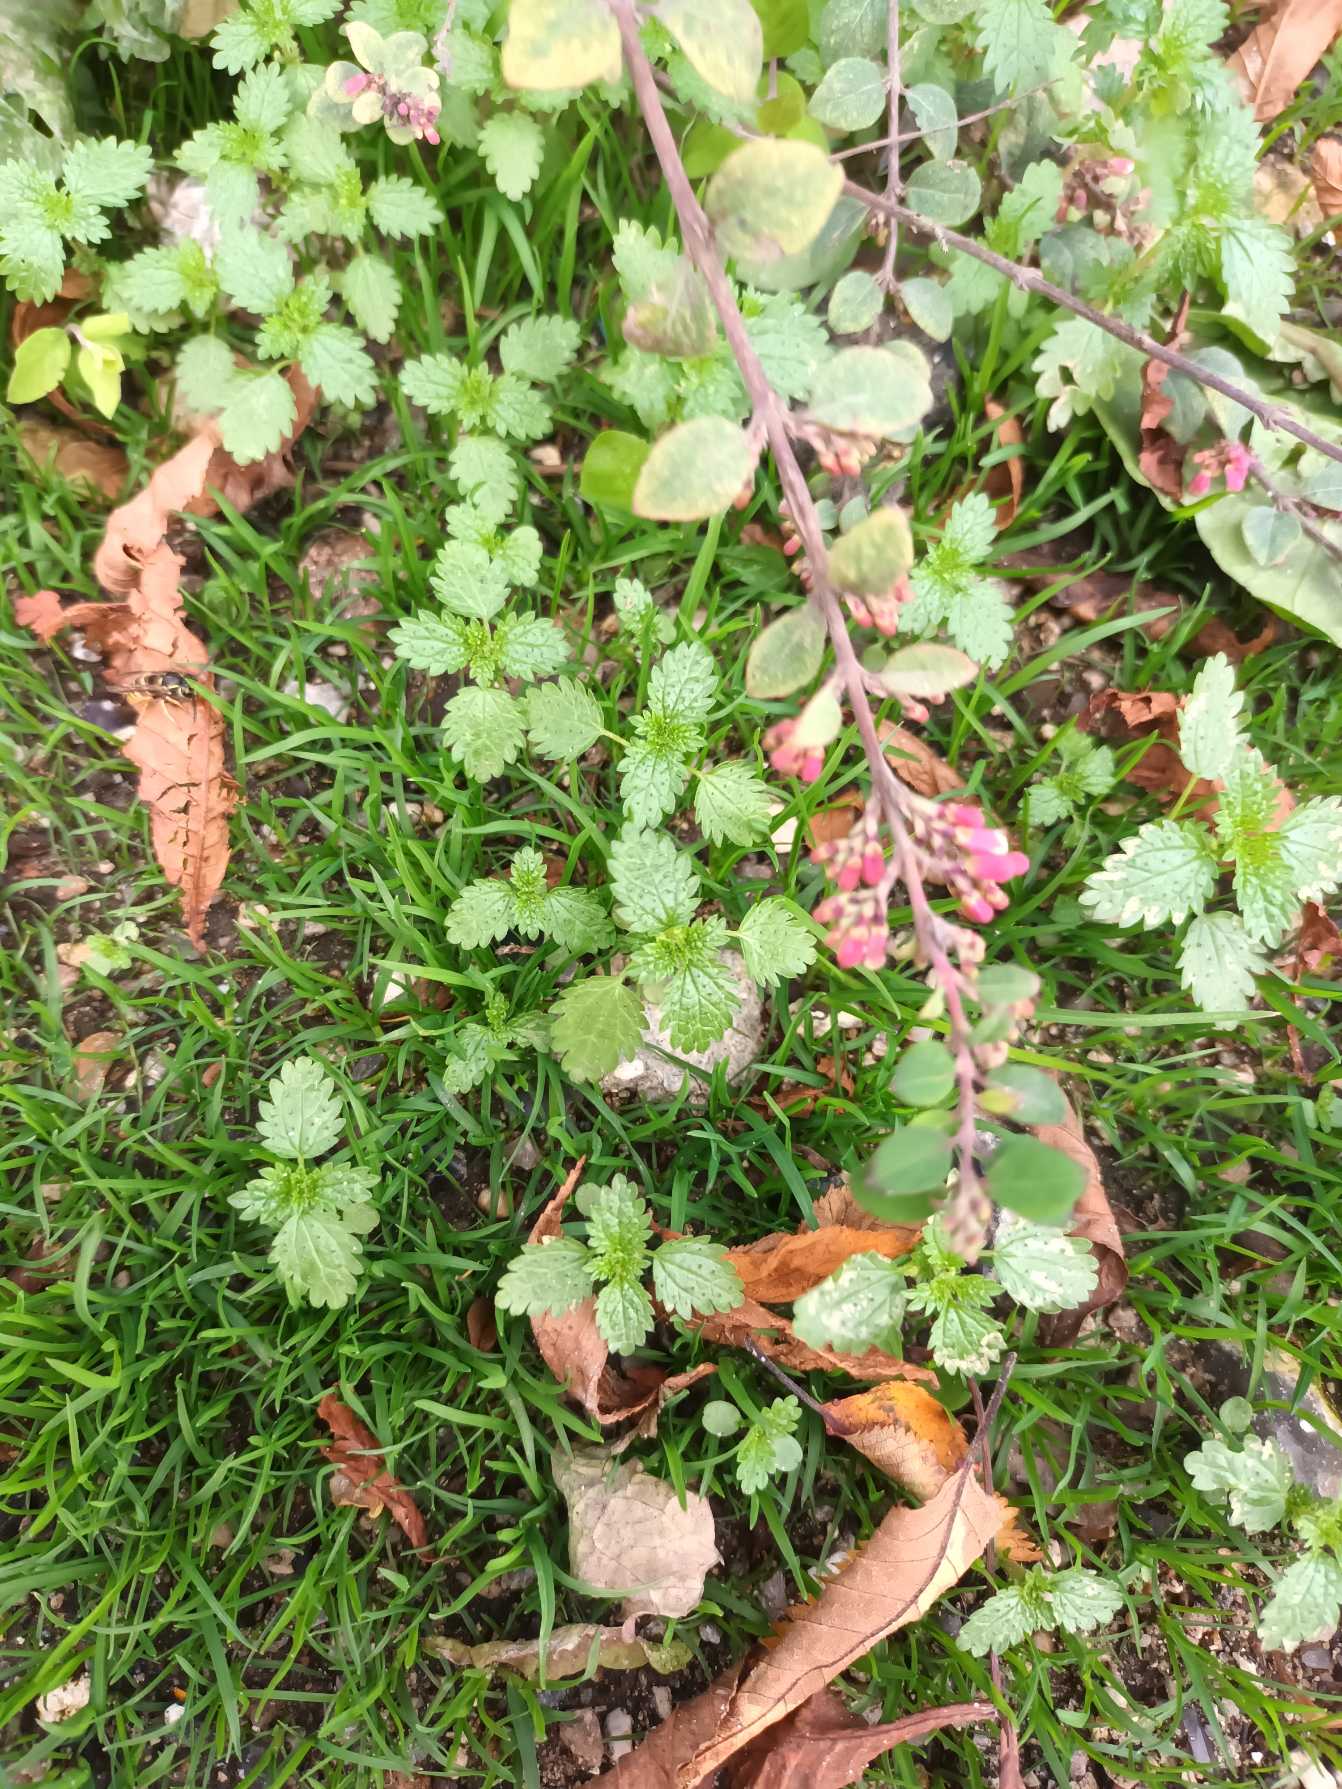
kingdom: Plantae
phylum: Tracheophyta
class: Magnoliopsida
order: Rosales
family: Urticaceae
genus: Urtica
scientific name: Urtica urens
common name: Liden nælde
